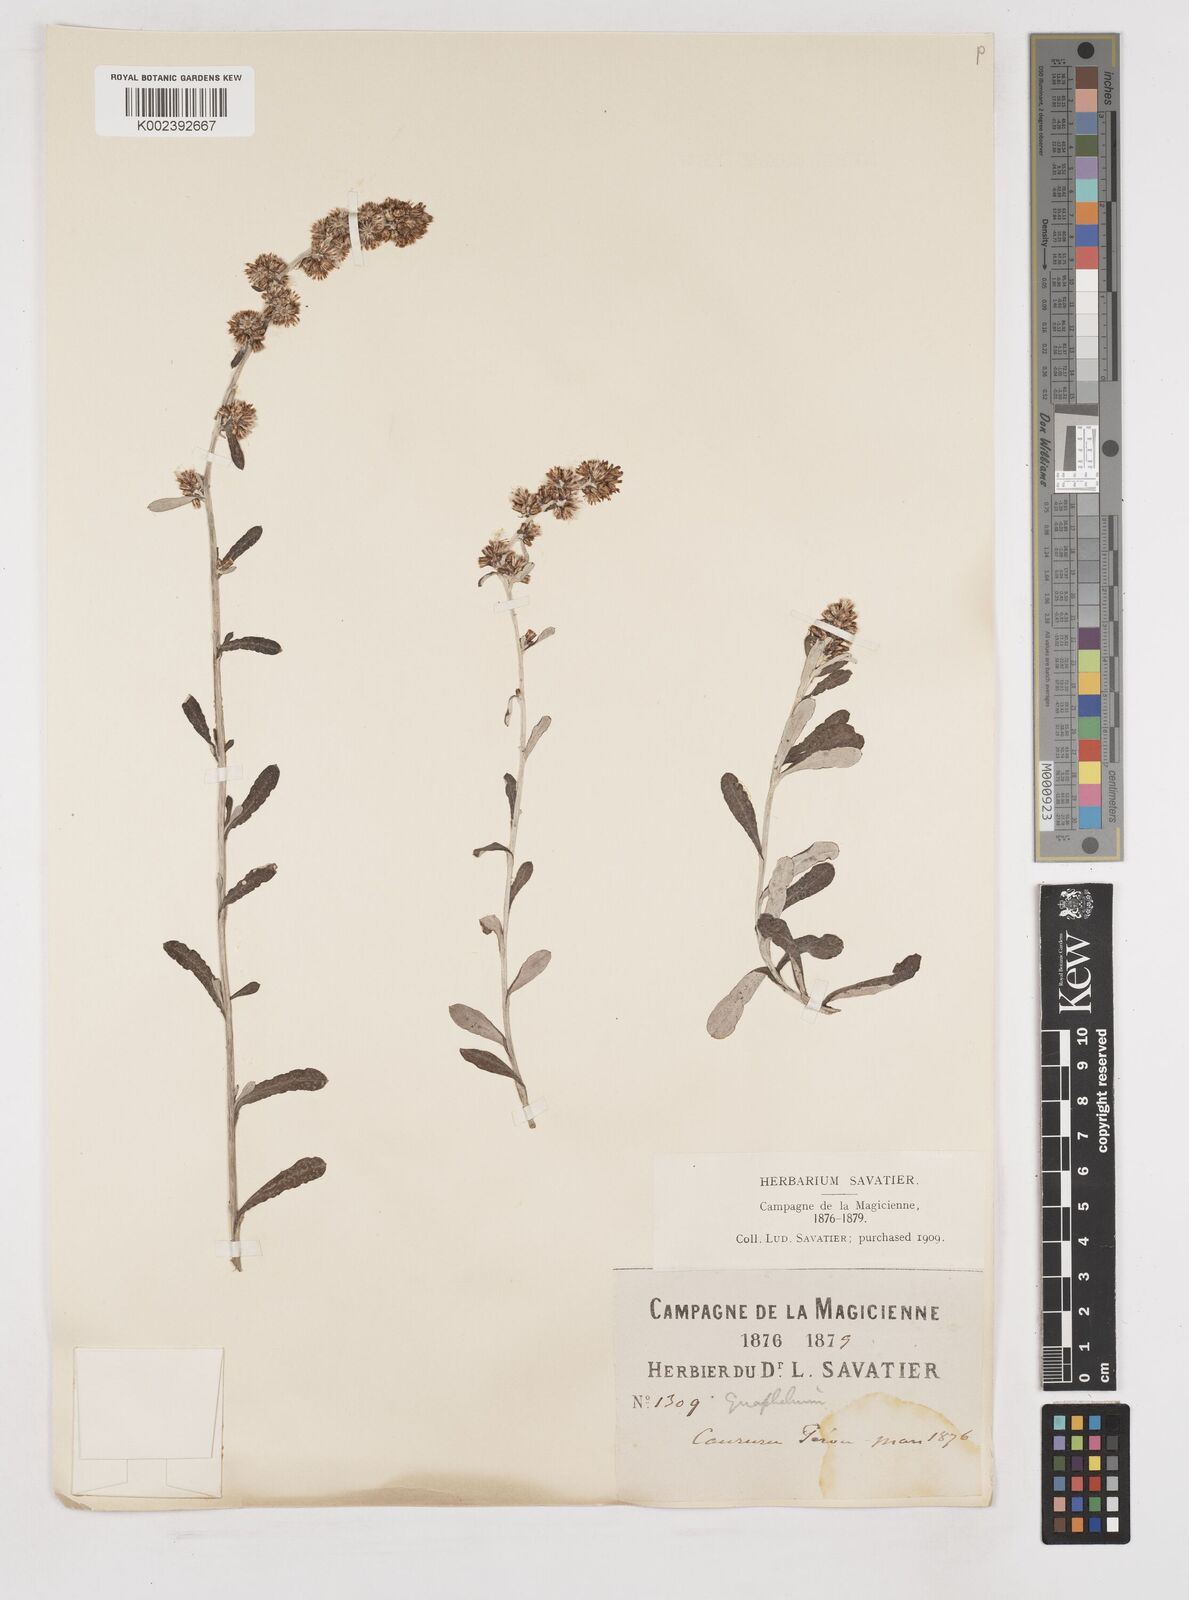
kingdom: Plantae
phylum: Tracheophyta
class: Magnoliopsida
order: Asterales
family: Asteraceae
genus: Gnaphalium
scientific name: Gnaphalium
